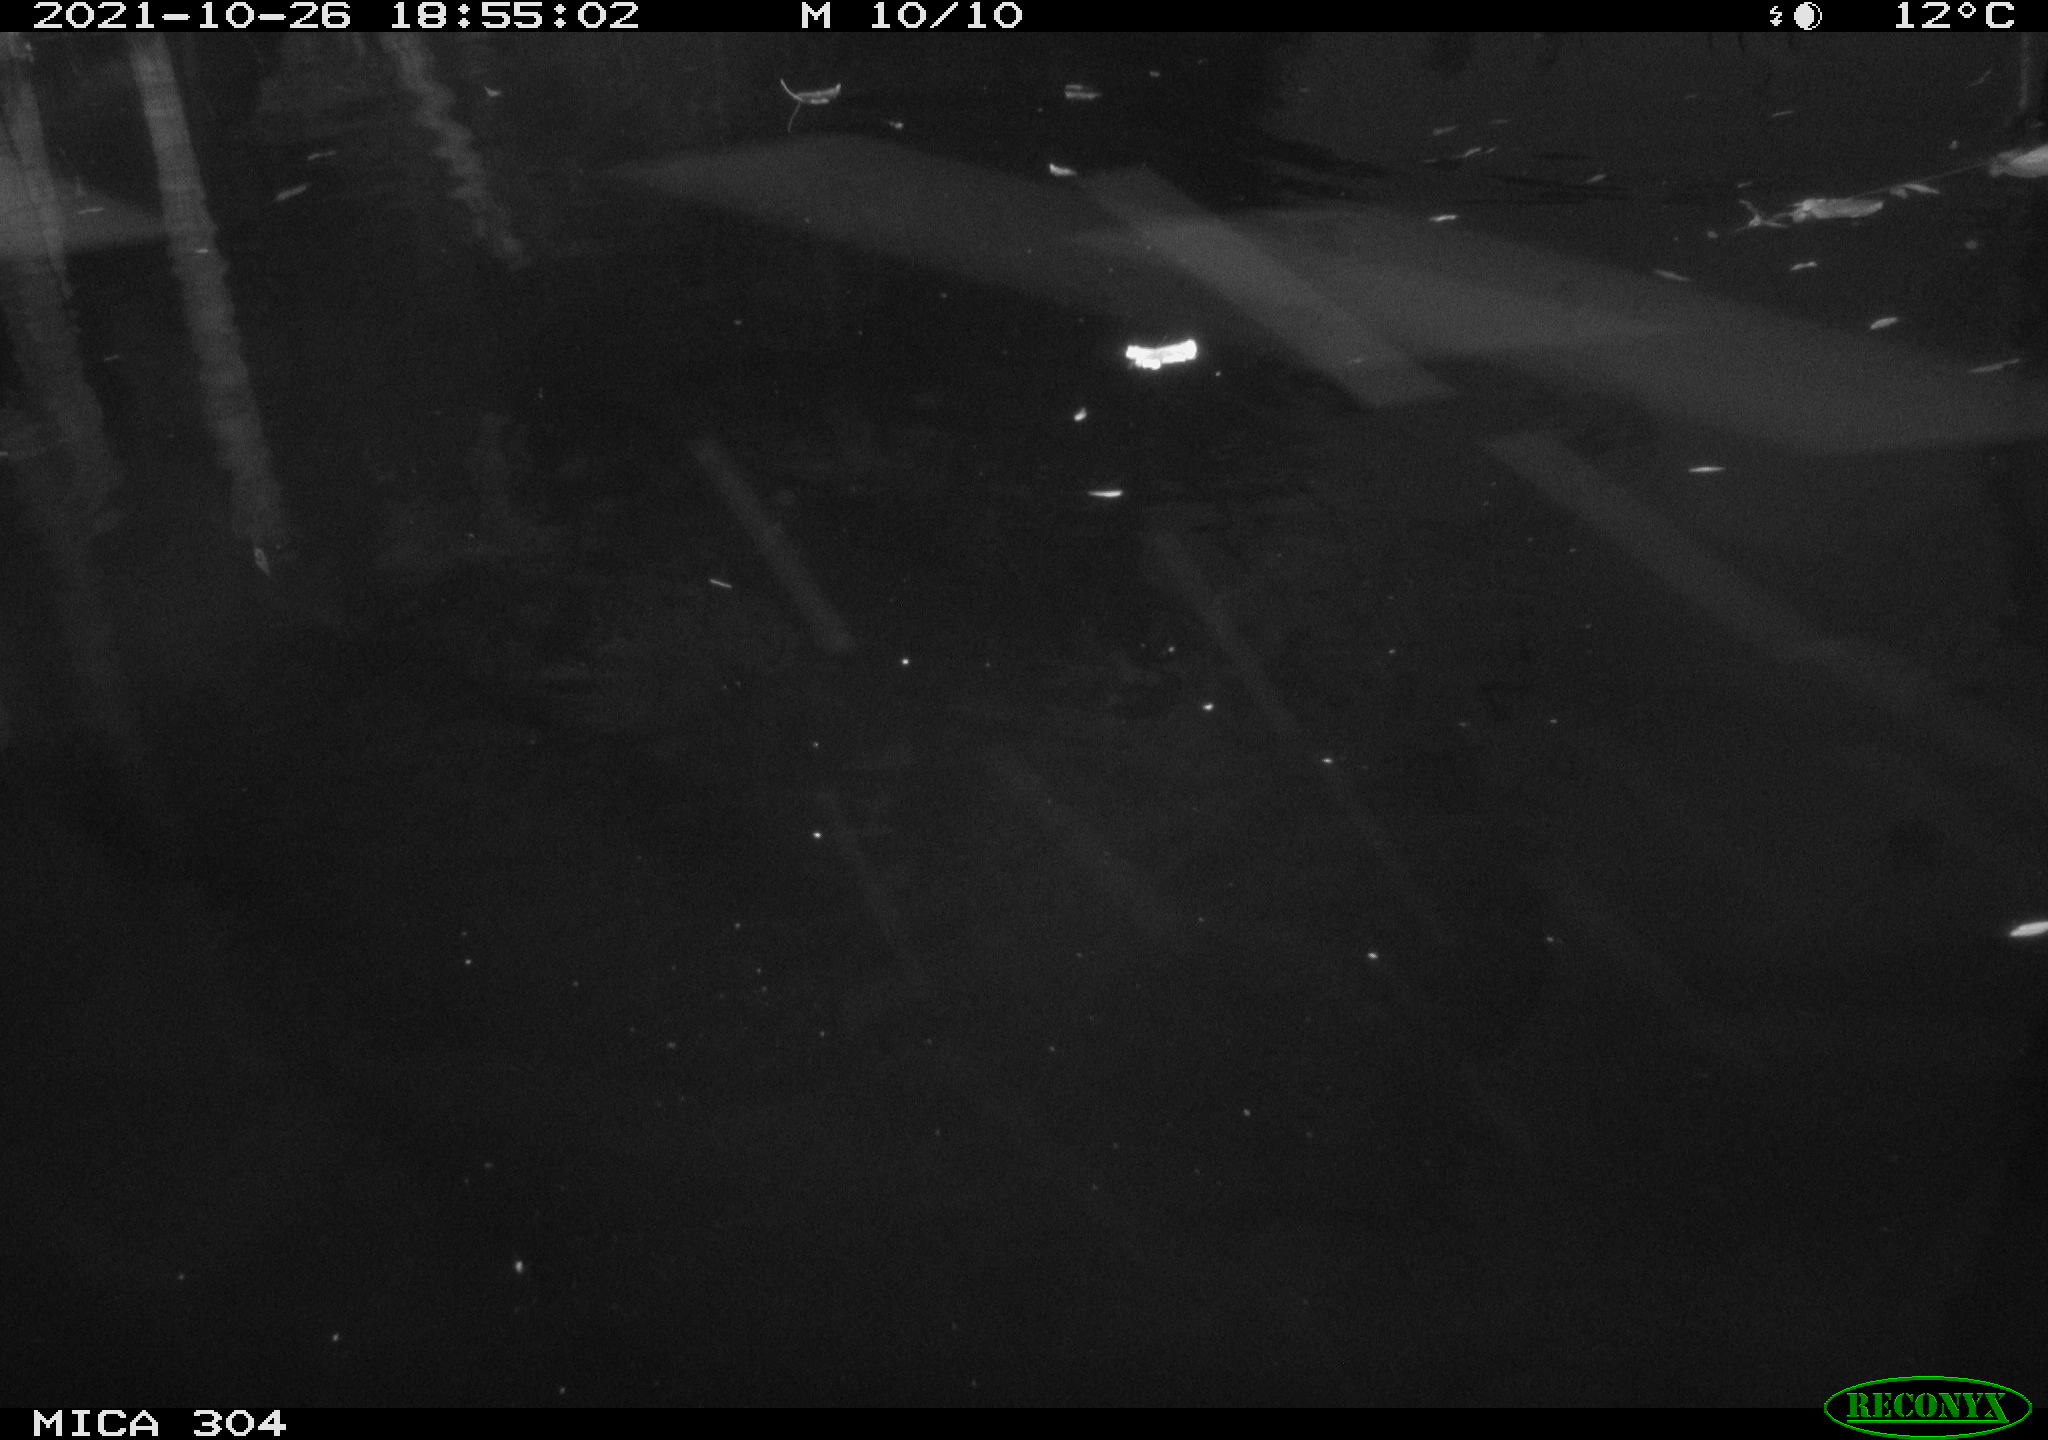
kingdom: Animalia
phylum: Chordata
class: Mammalia
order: Rodentia
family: Muridae
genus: Rattus
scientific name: Rattus norvegicus
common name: Brown rat
